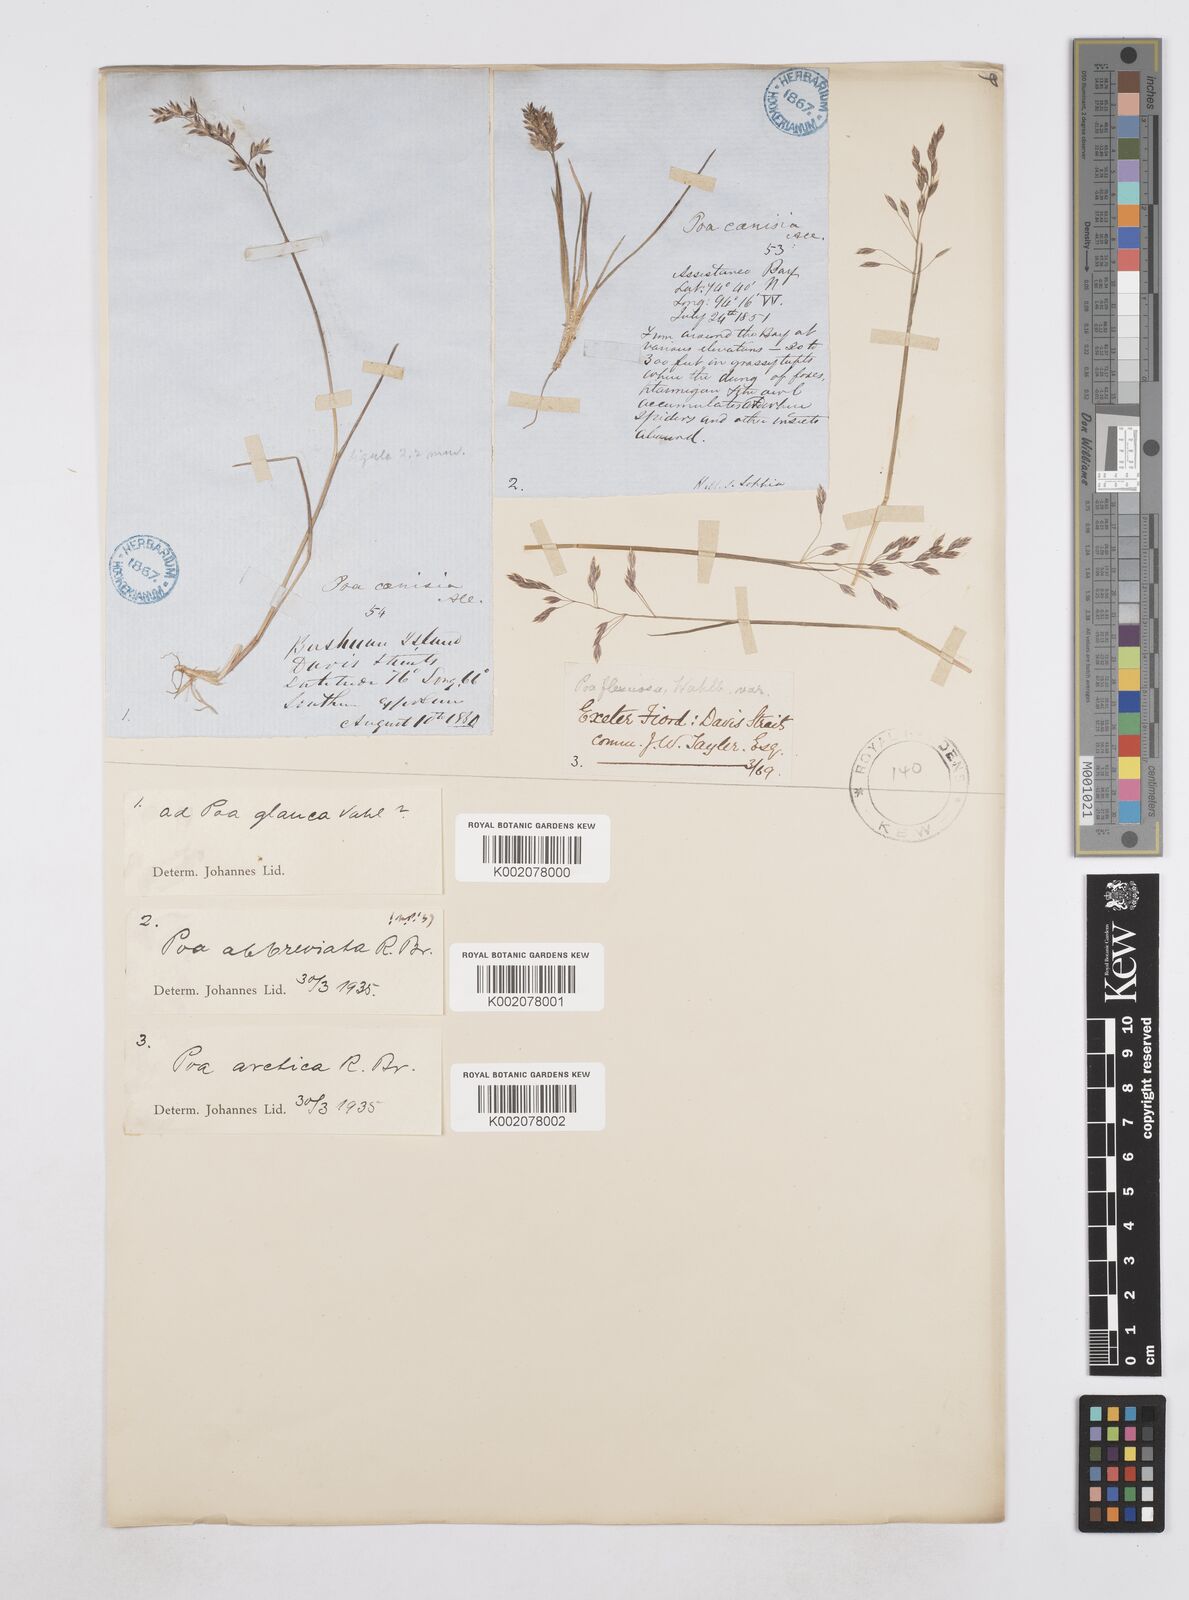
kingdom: Plantae
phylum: Tracheophyta
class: Liliopsida
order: Poales
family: Poaceae
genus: Poa
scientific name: Poa arctica
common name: Arctic bluegrass
